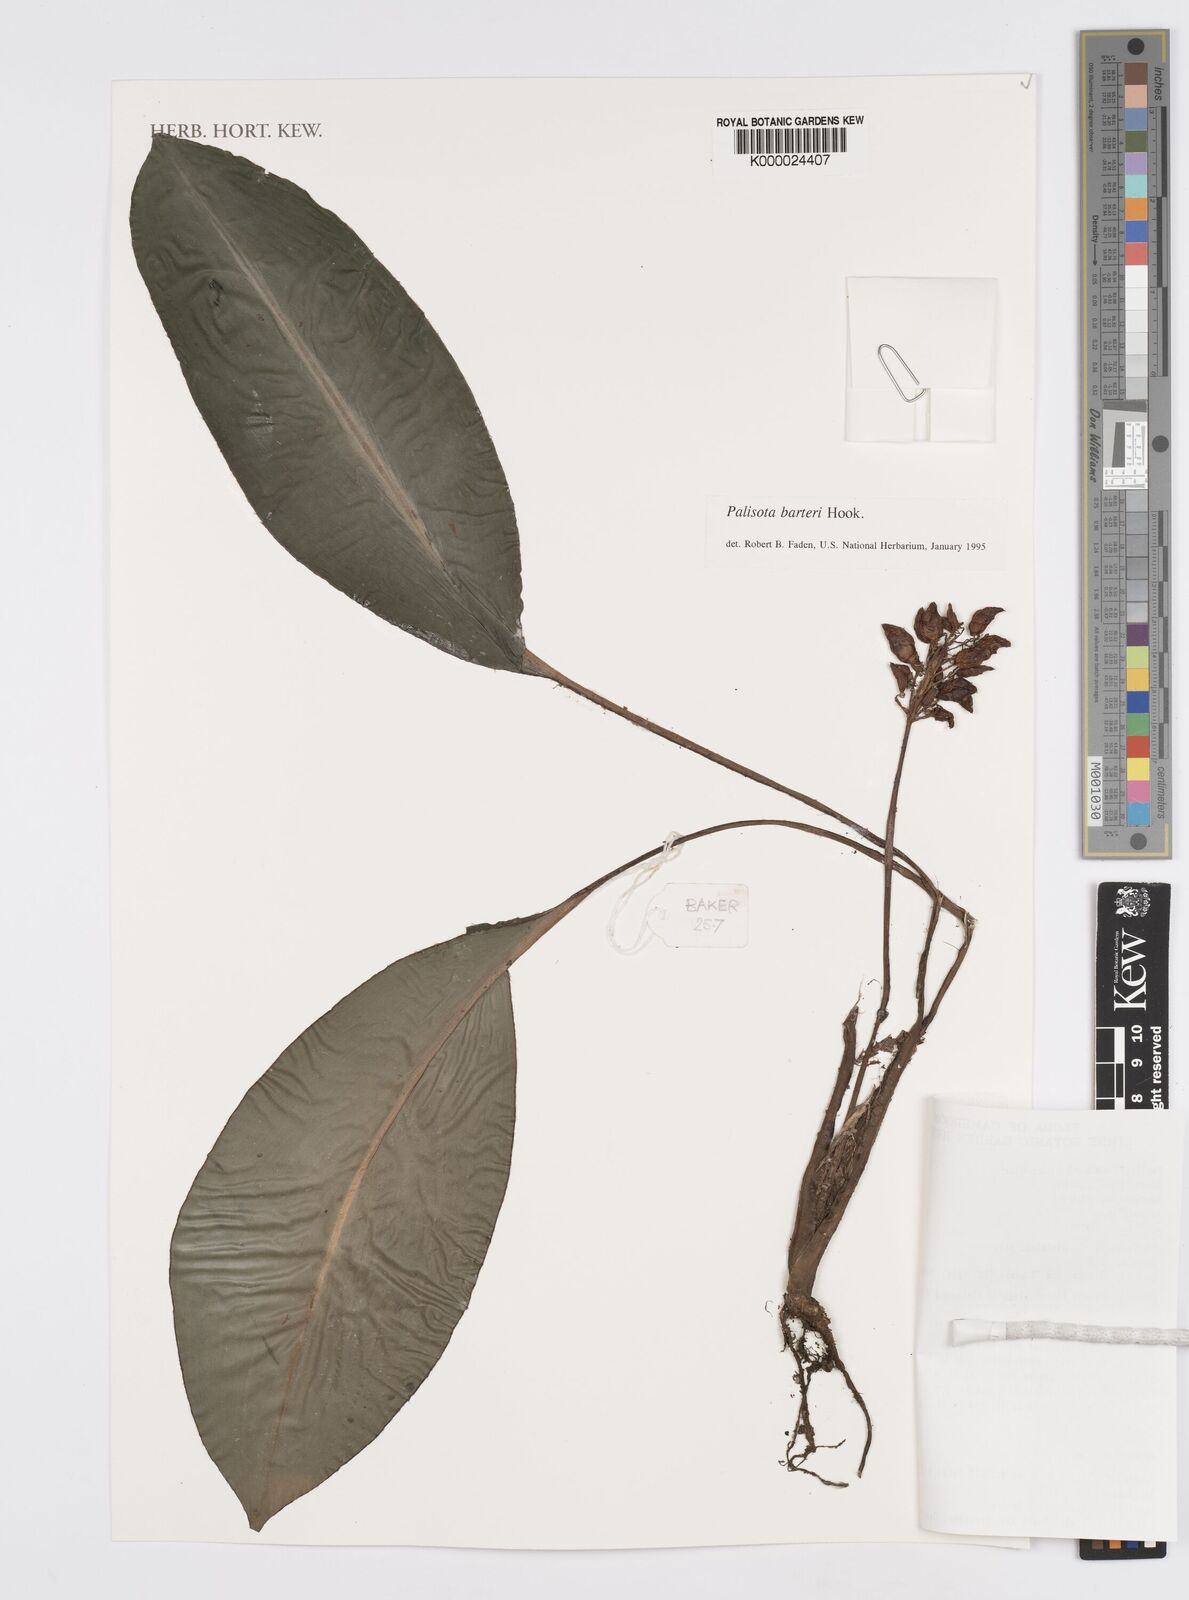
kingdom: Plantae
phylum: Tracheophyta
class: Liliopsida
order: Commelinales
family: Commelinaceae
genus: Palisota
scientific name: Palisota barteri
